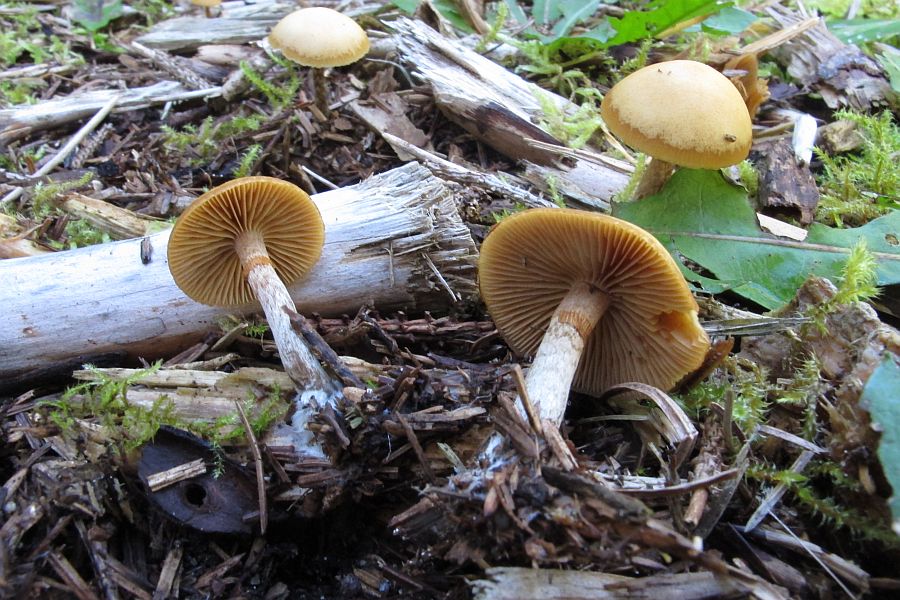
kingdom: Fungi
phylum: Basidiomycota
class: Agaricomycetes
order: Agaricales
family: Hymenogastraceae
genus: Galerina
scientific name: Galerina marginata
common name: randbæltet hjelmhat
